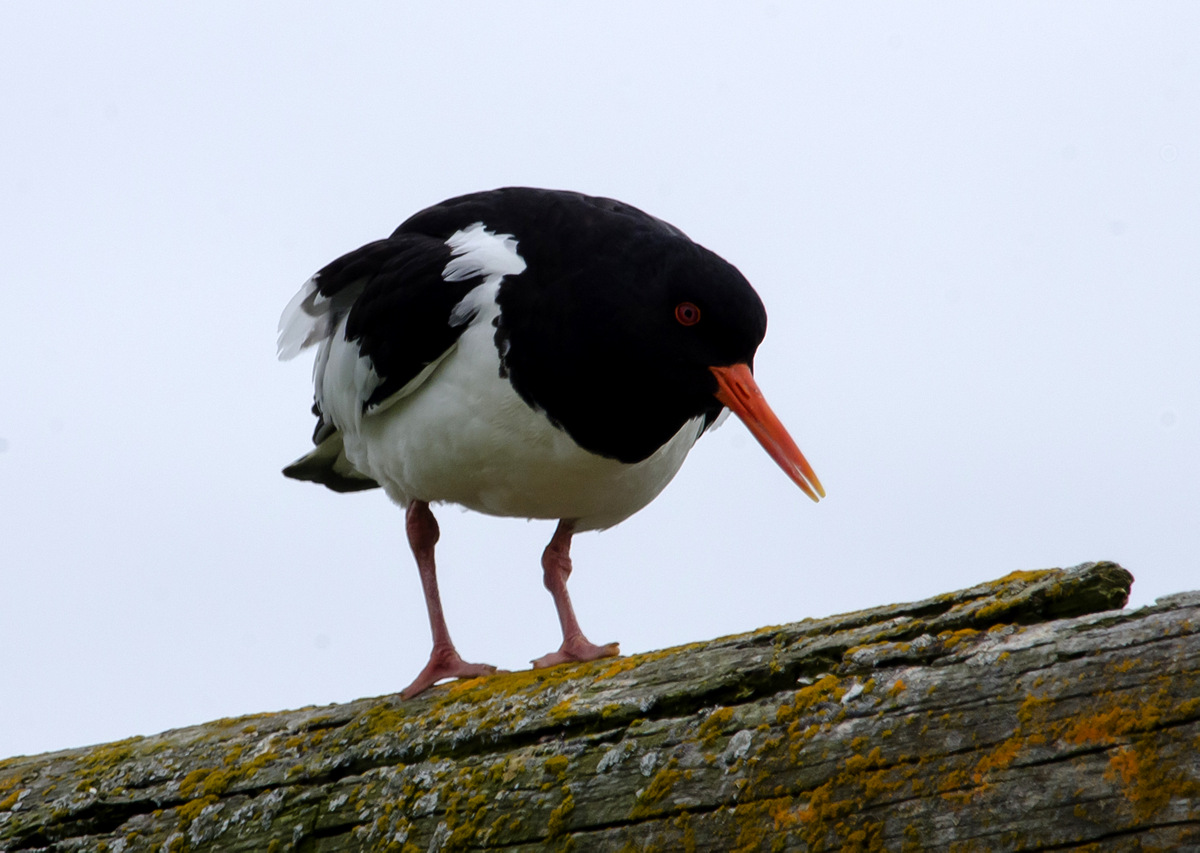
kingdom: Animalia
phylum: Chordata
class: Aves
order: Charadriiformes
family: Haematopodidae
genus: Haematopus
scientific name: Haematopus ostralegus
